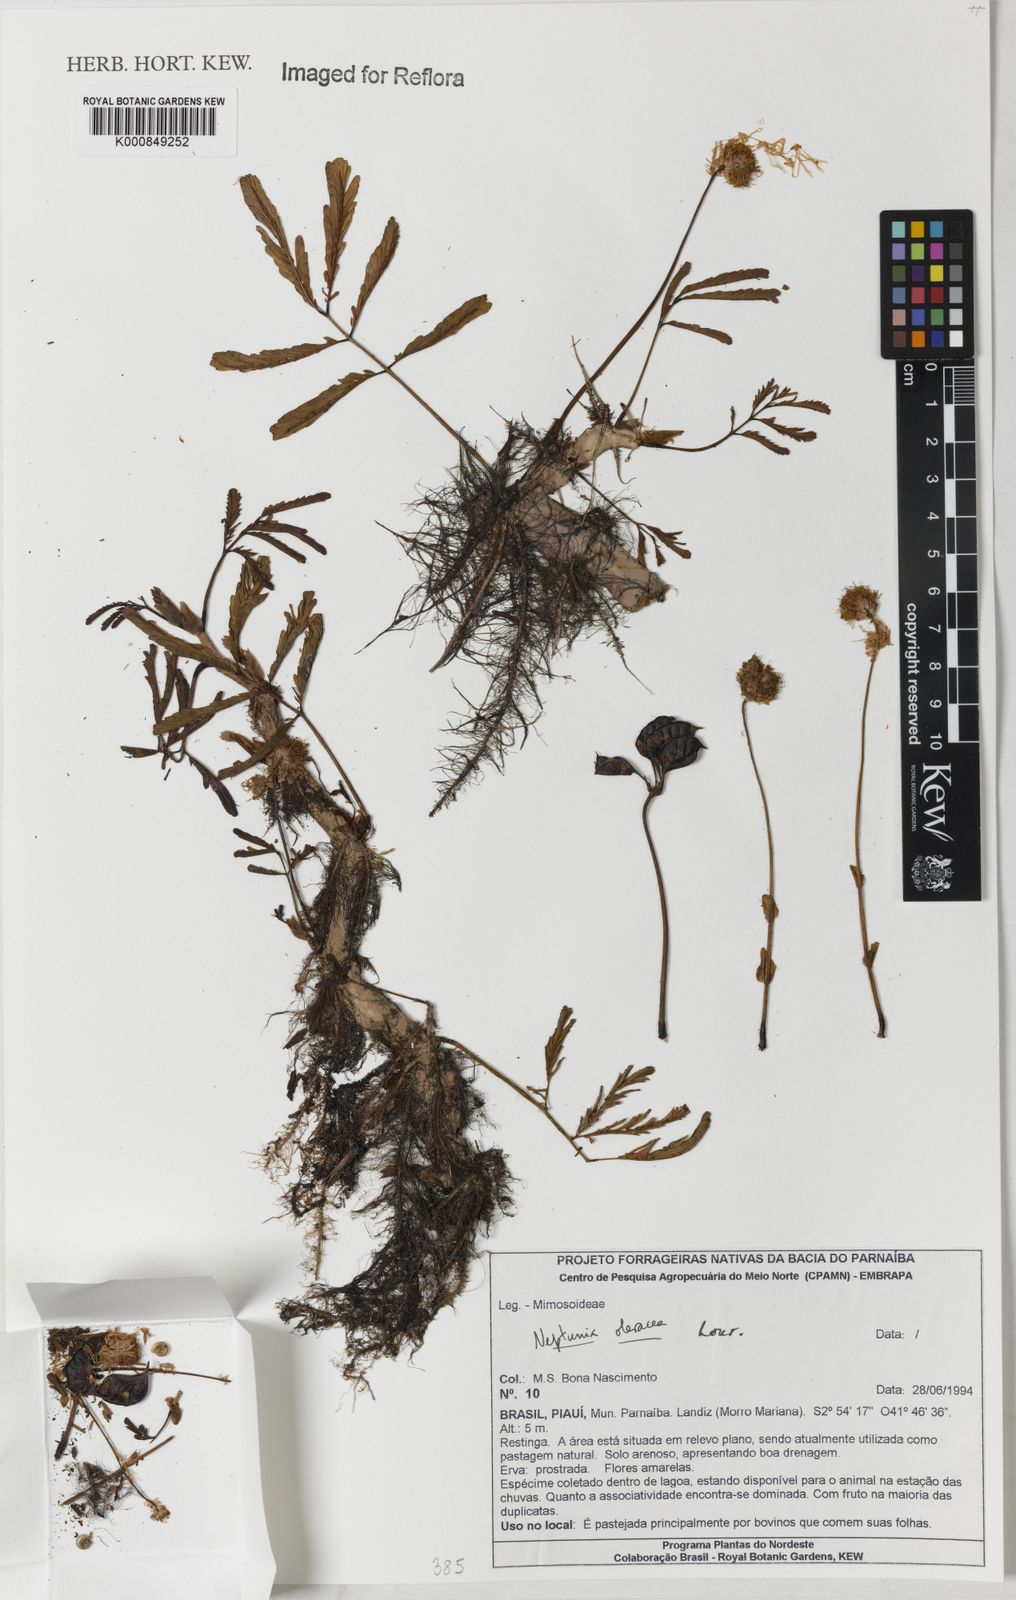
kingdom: Plantae
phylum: Tracheophyta
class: Magnoliopsida
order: Fabales
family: Fabaceae
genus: Neptunia
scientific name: Neptunia prostrata
